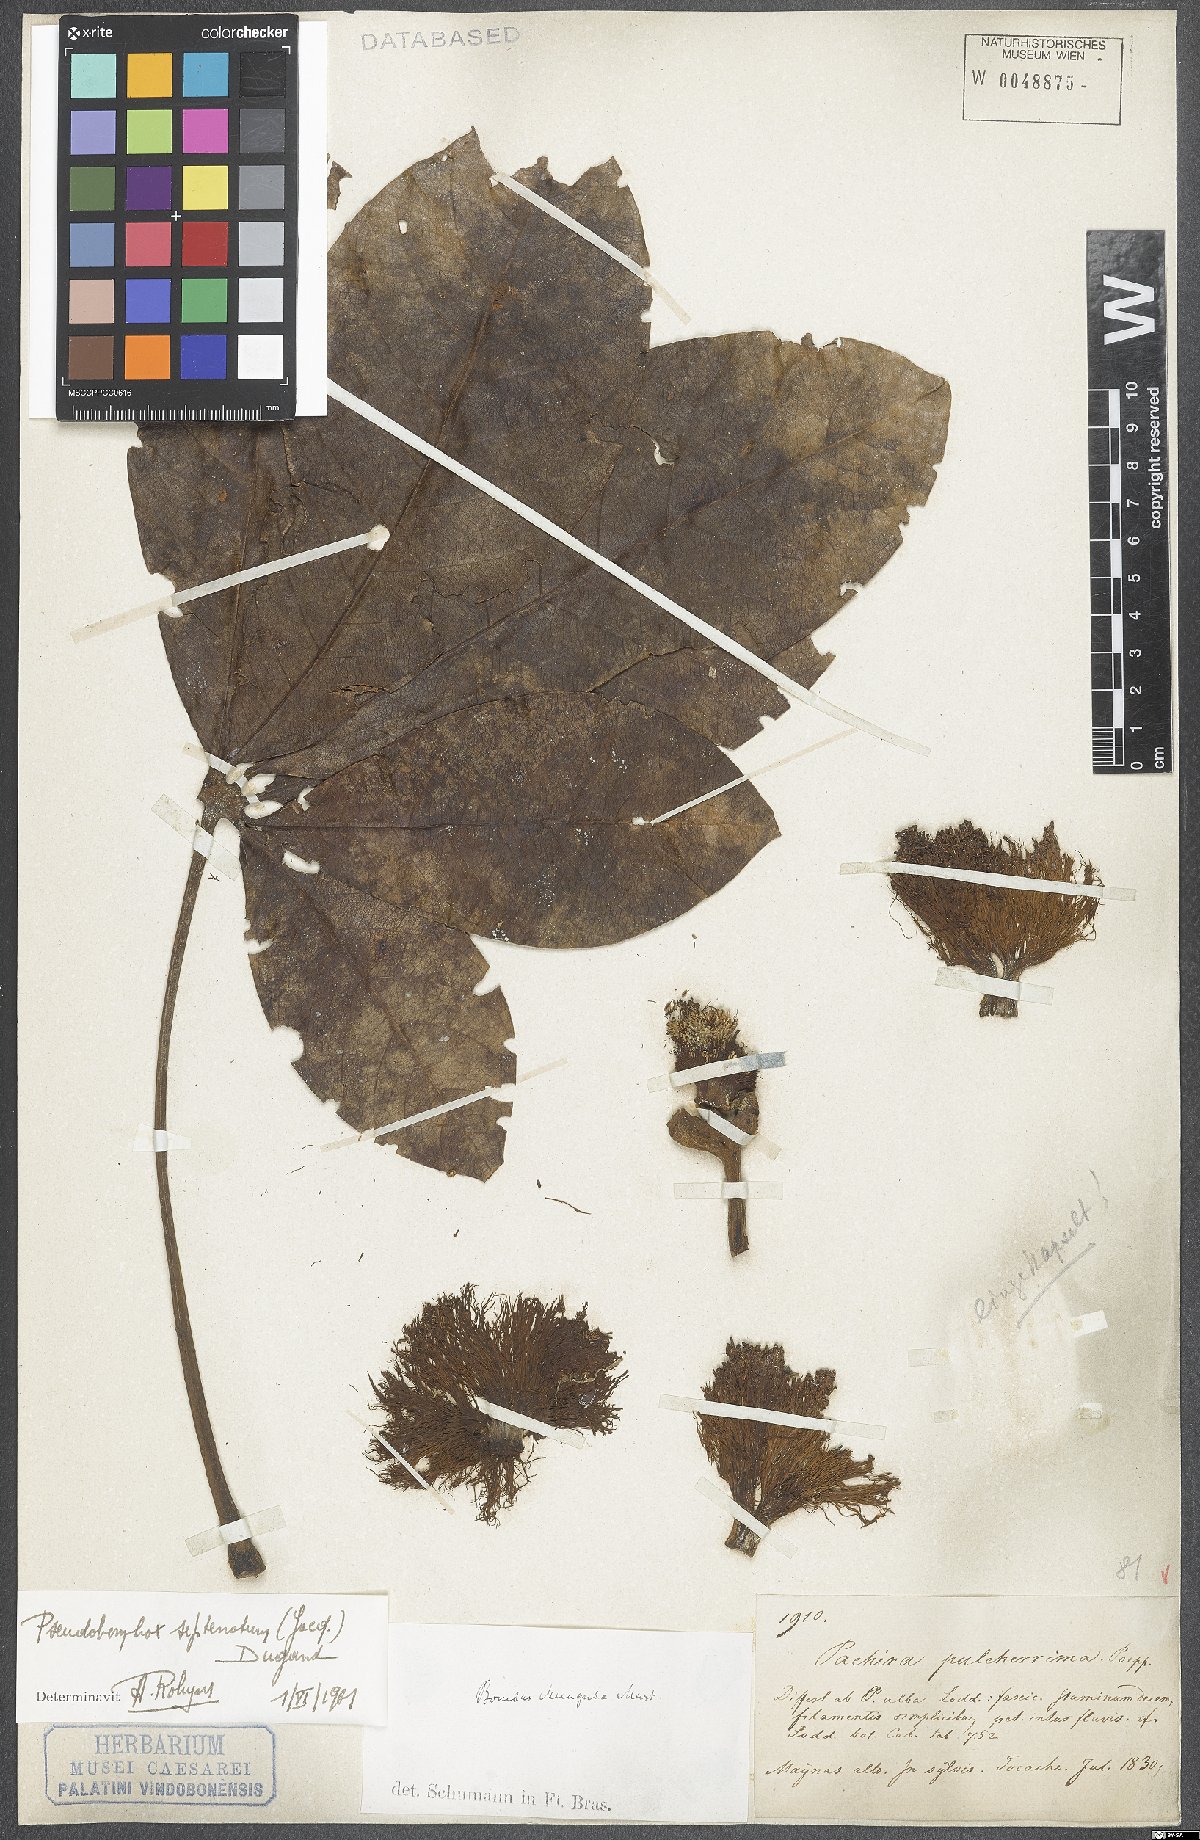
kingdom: Plantae
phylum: Tracheophyta
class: Magnoliopsida
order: Malvales
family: Malvaceae
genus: Pseudobombax
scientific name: Pseudobombax septenatum
